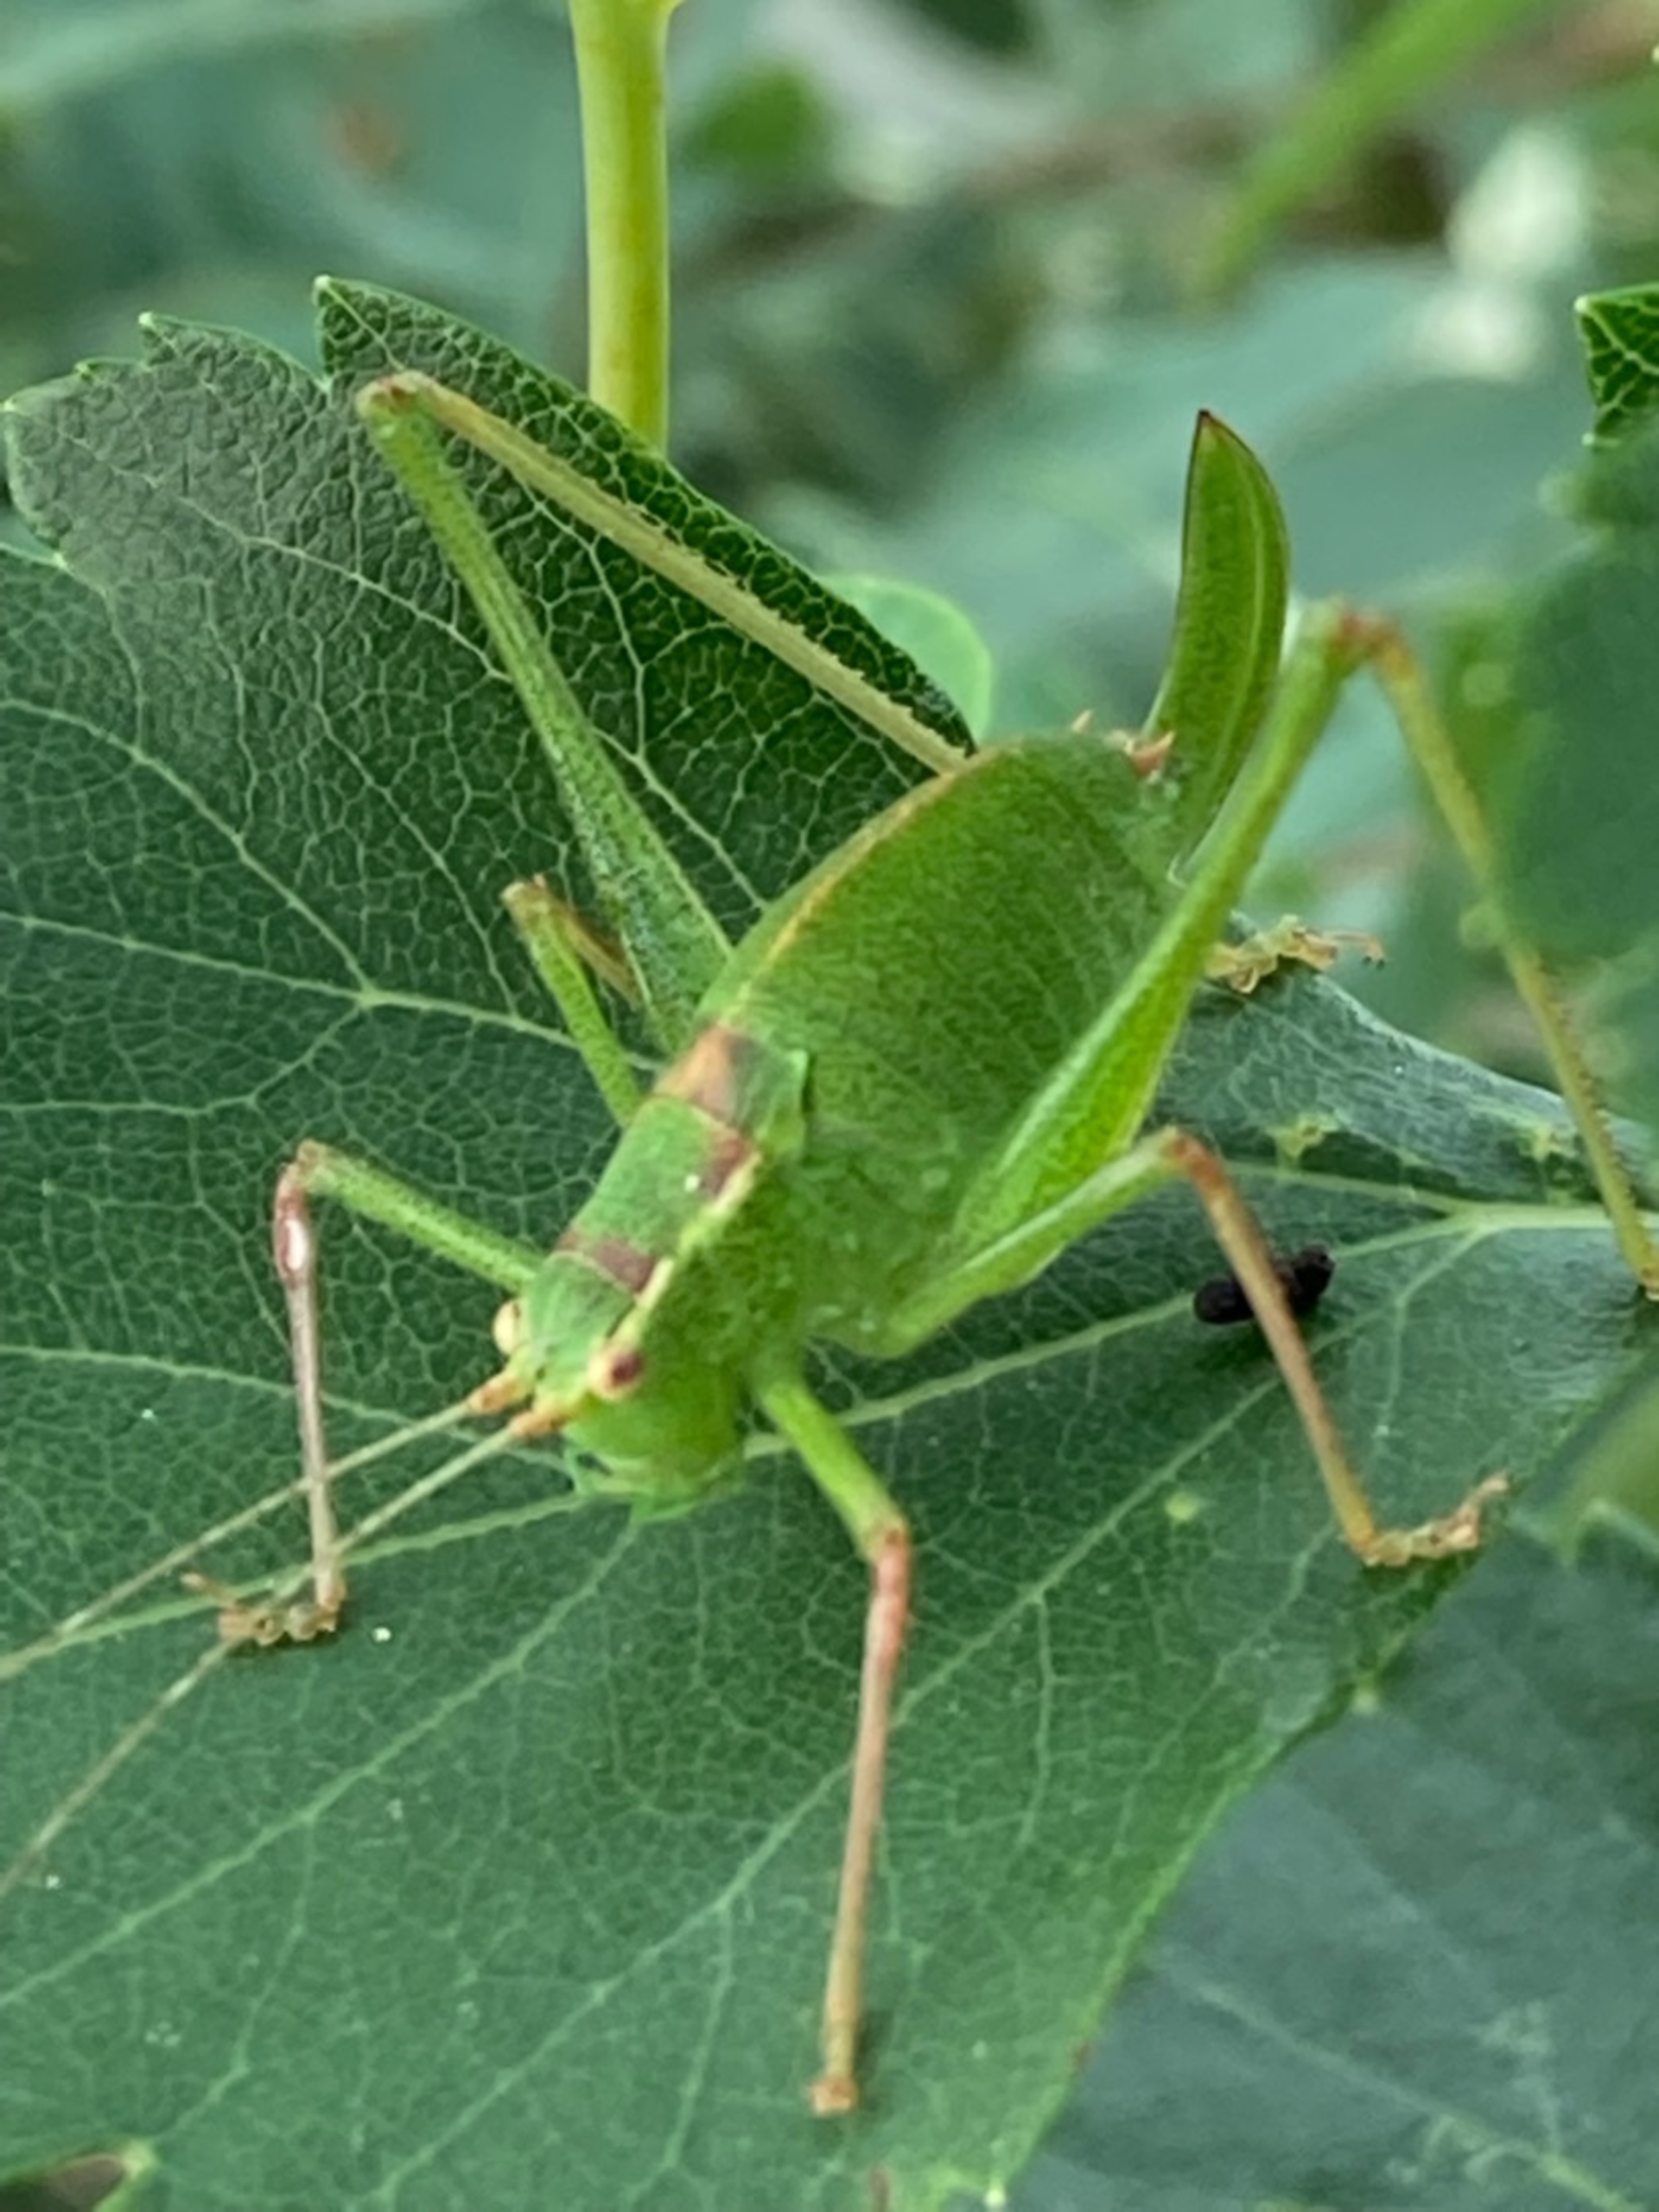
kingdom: Animalia
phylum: Arthropoda
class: Insecta
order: Orthoptera
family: Tettigoniidae
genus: Leptophyes
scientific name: Leptophyes punctatissima
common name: Krumknivgræshoppe
